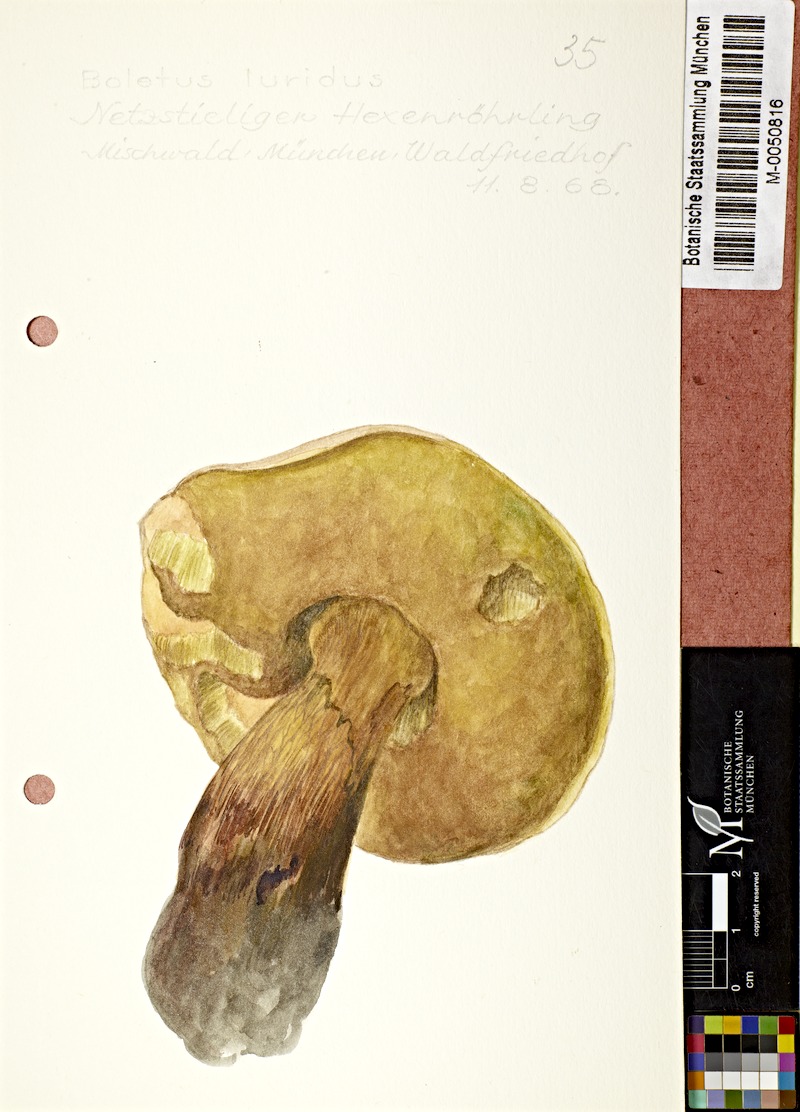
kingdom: Fungi
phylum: Basidiomycota
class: Agaricomycetes
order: Boletales
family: Boletaceae
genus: Suillellus
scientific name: Suillellus luridus
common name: Lurid bolete
